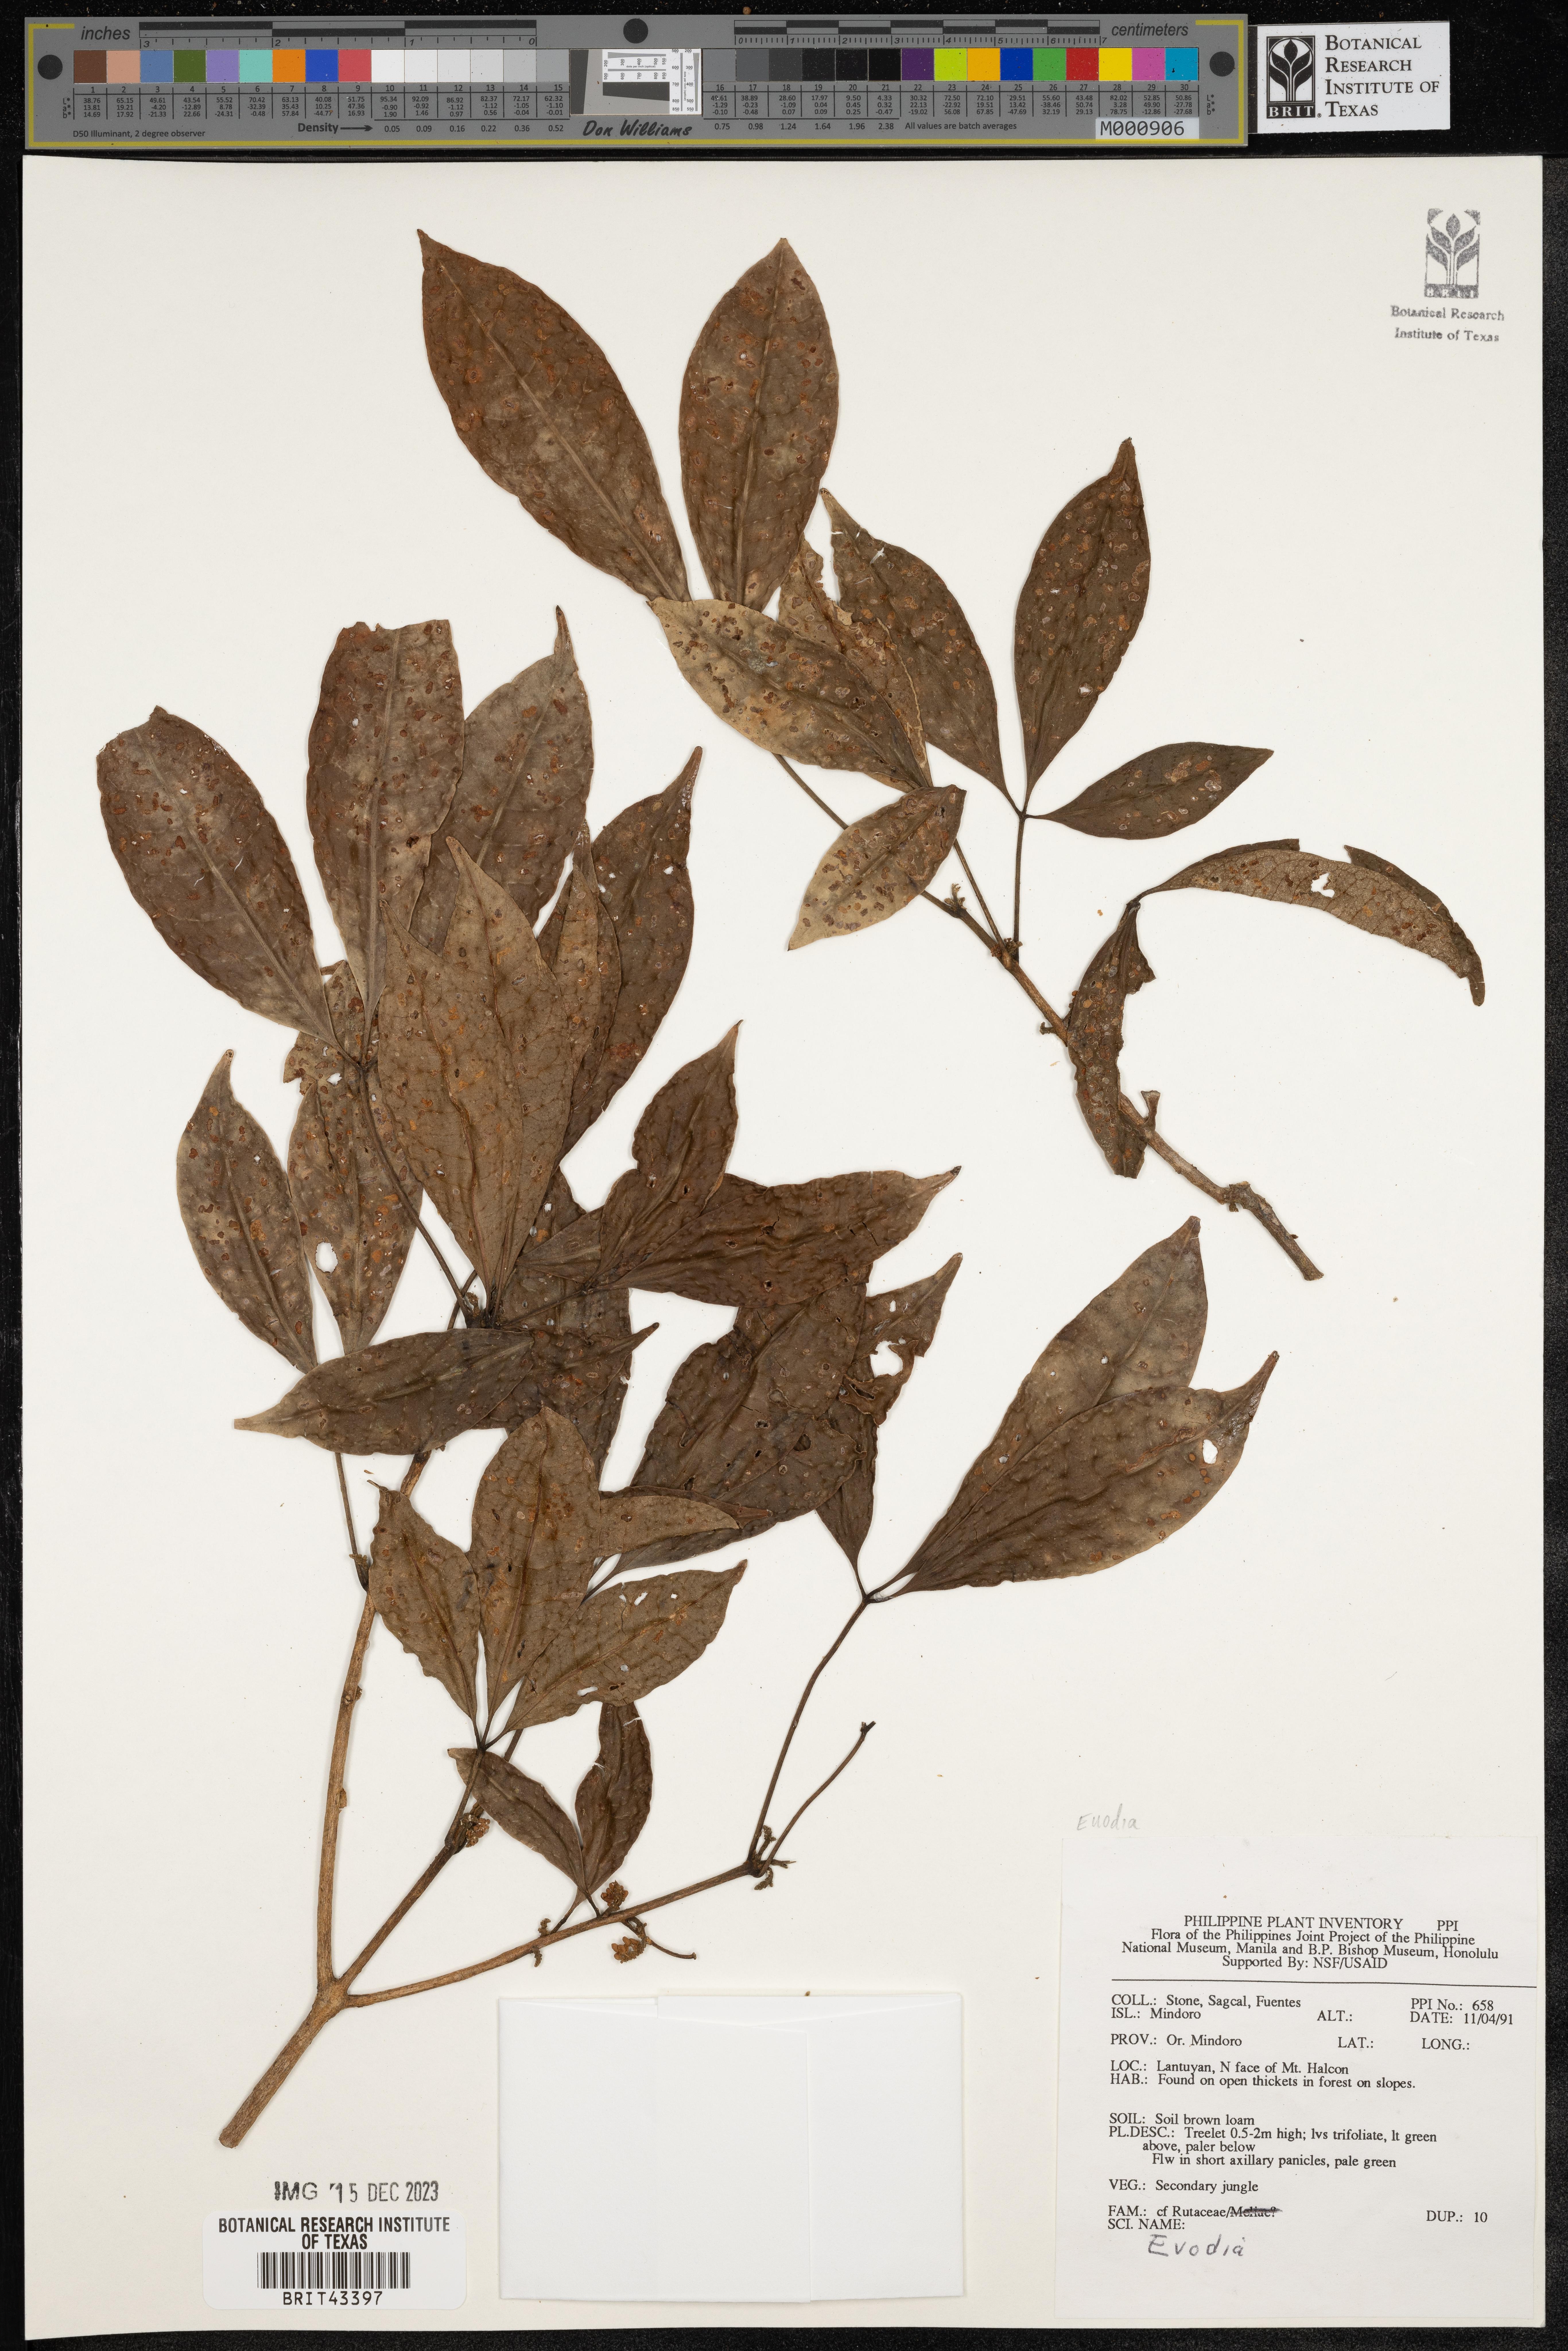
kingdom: Plantae
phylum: Tracheophyta
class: Magnoliopsida
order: Sapindales
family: Rutaceae
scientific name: Rutaceae
